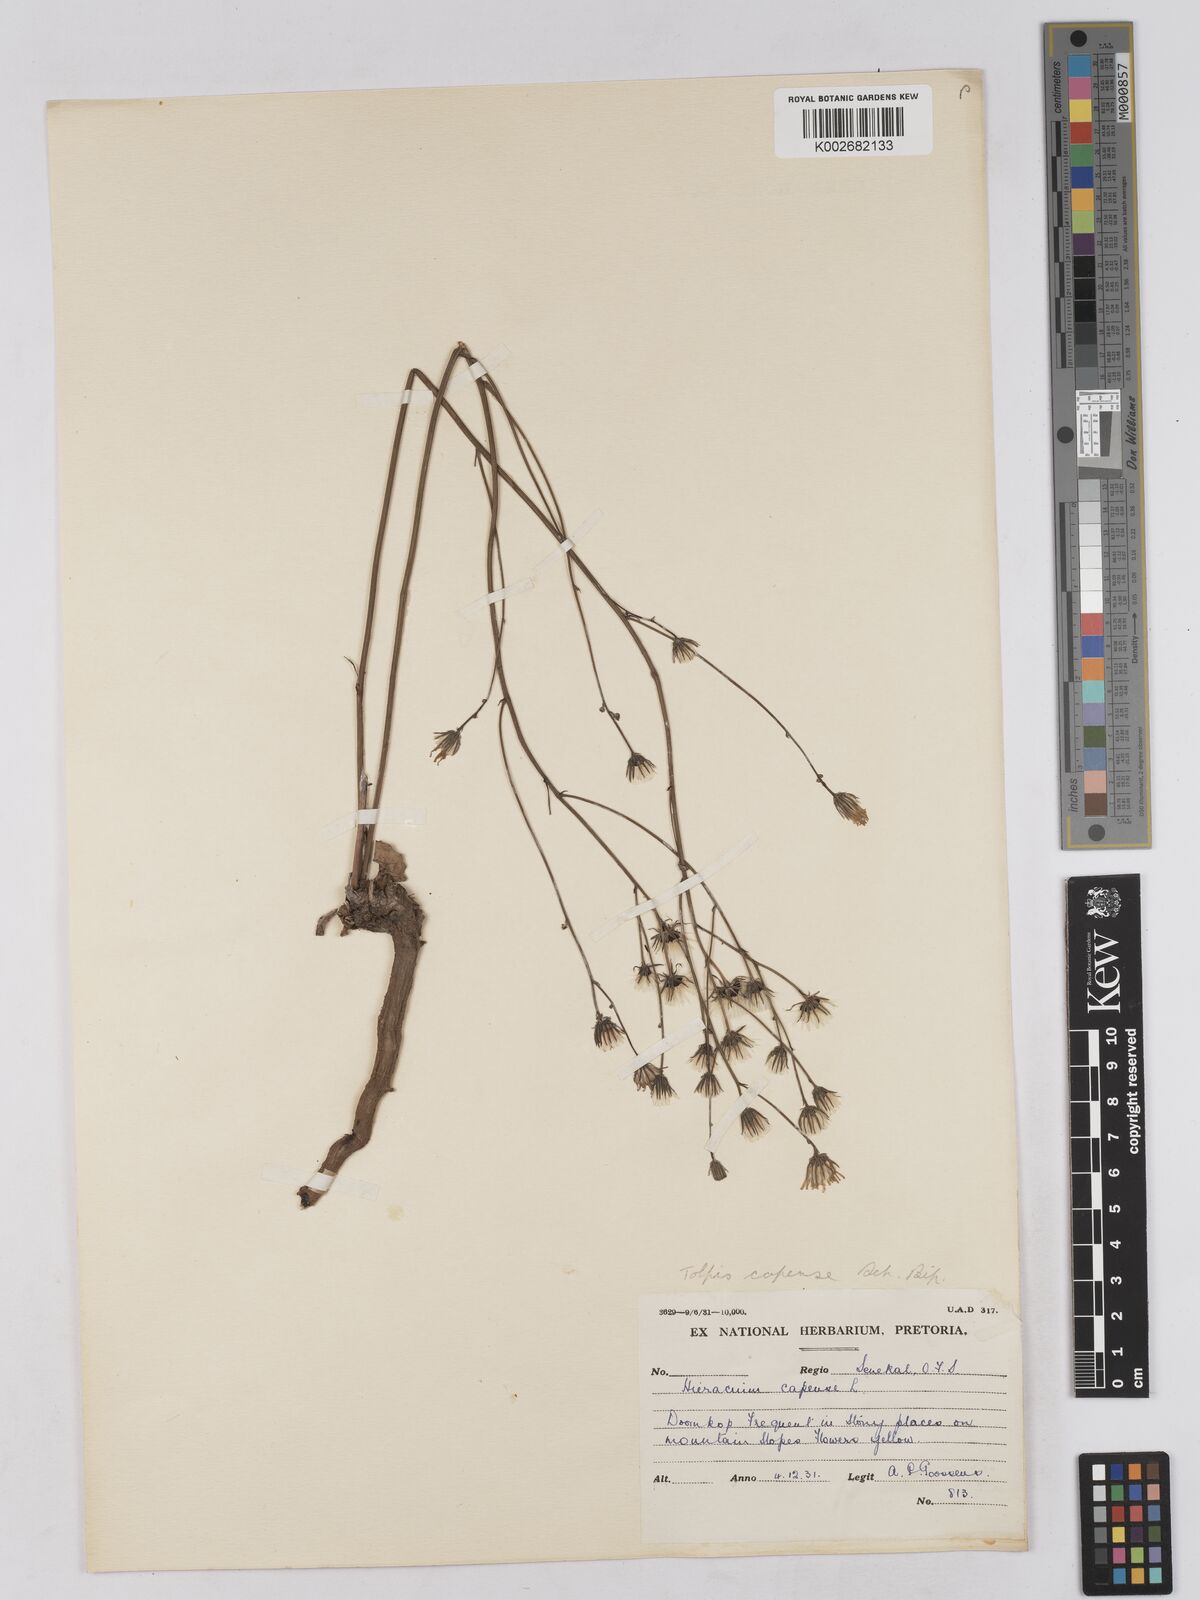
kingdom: Plantae
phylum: Tracheophyta
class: Magnoliopsida
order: Asterales
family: Asteraceae
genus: Tolpis
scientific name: Tolpis capensis
